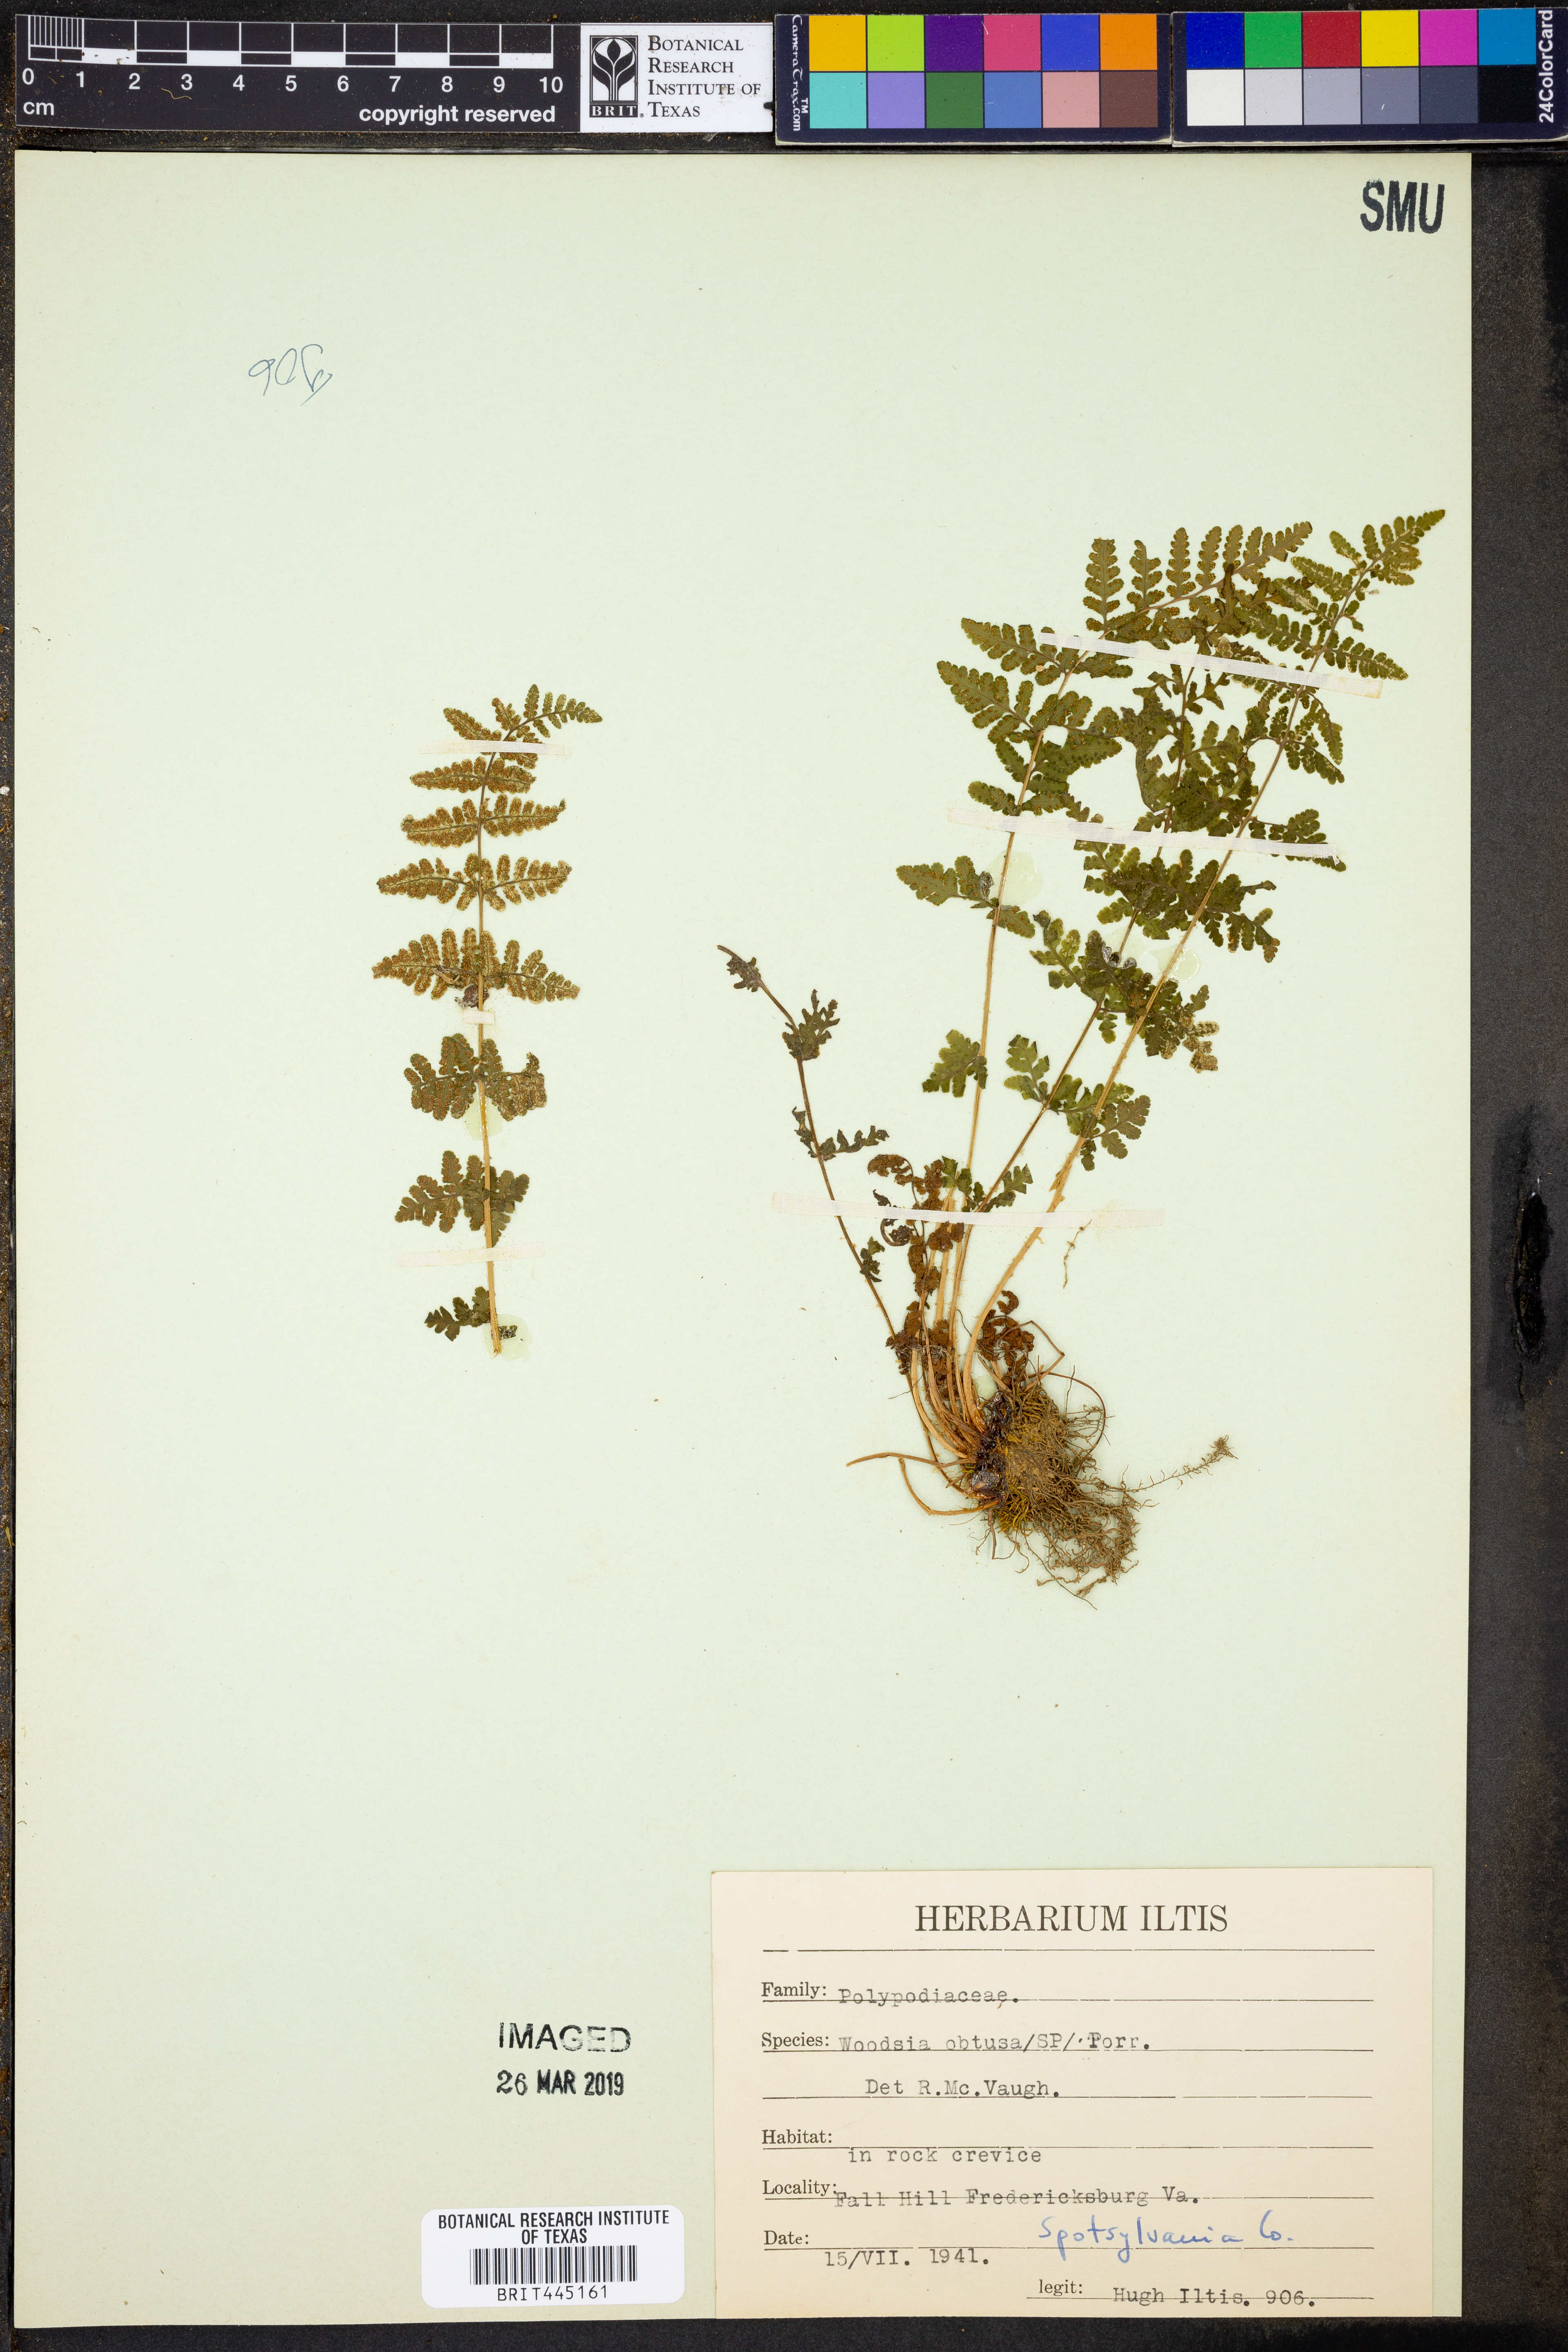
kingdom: Plantae
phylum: Tracheophyta
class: Polypodiopsida
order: Polypodiales
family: Woodsiaceae
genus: Physematium
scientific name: Physematium obtusum
